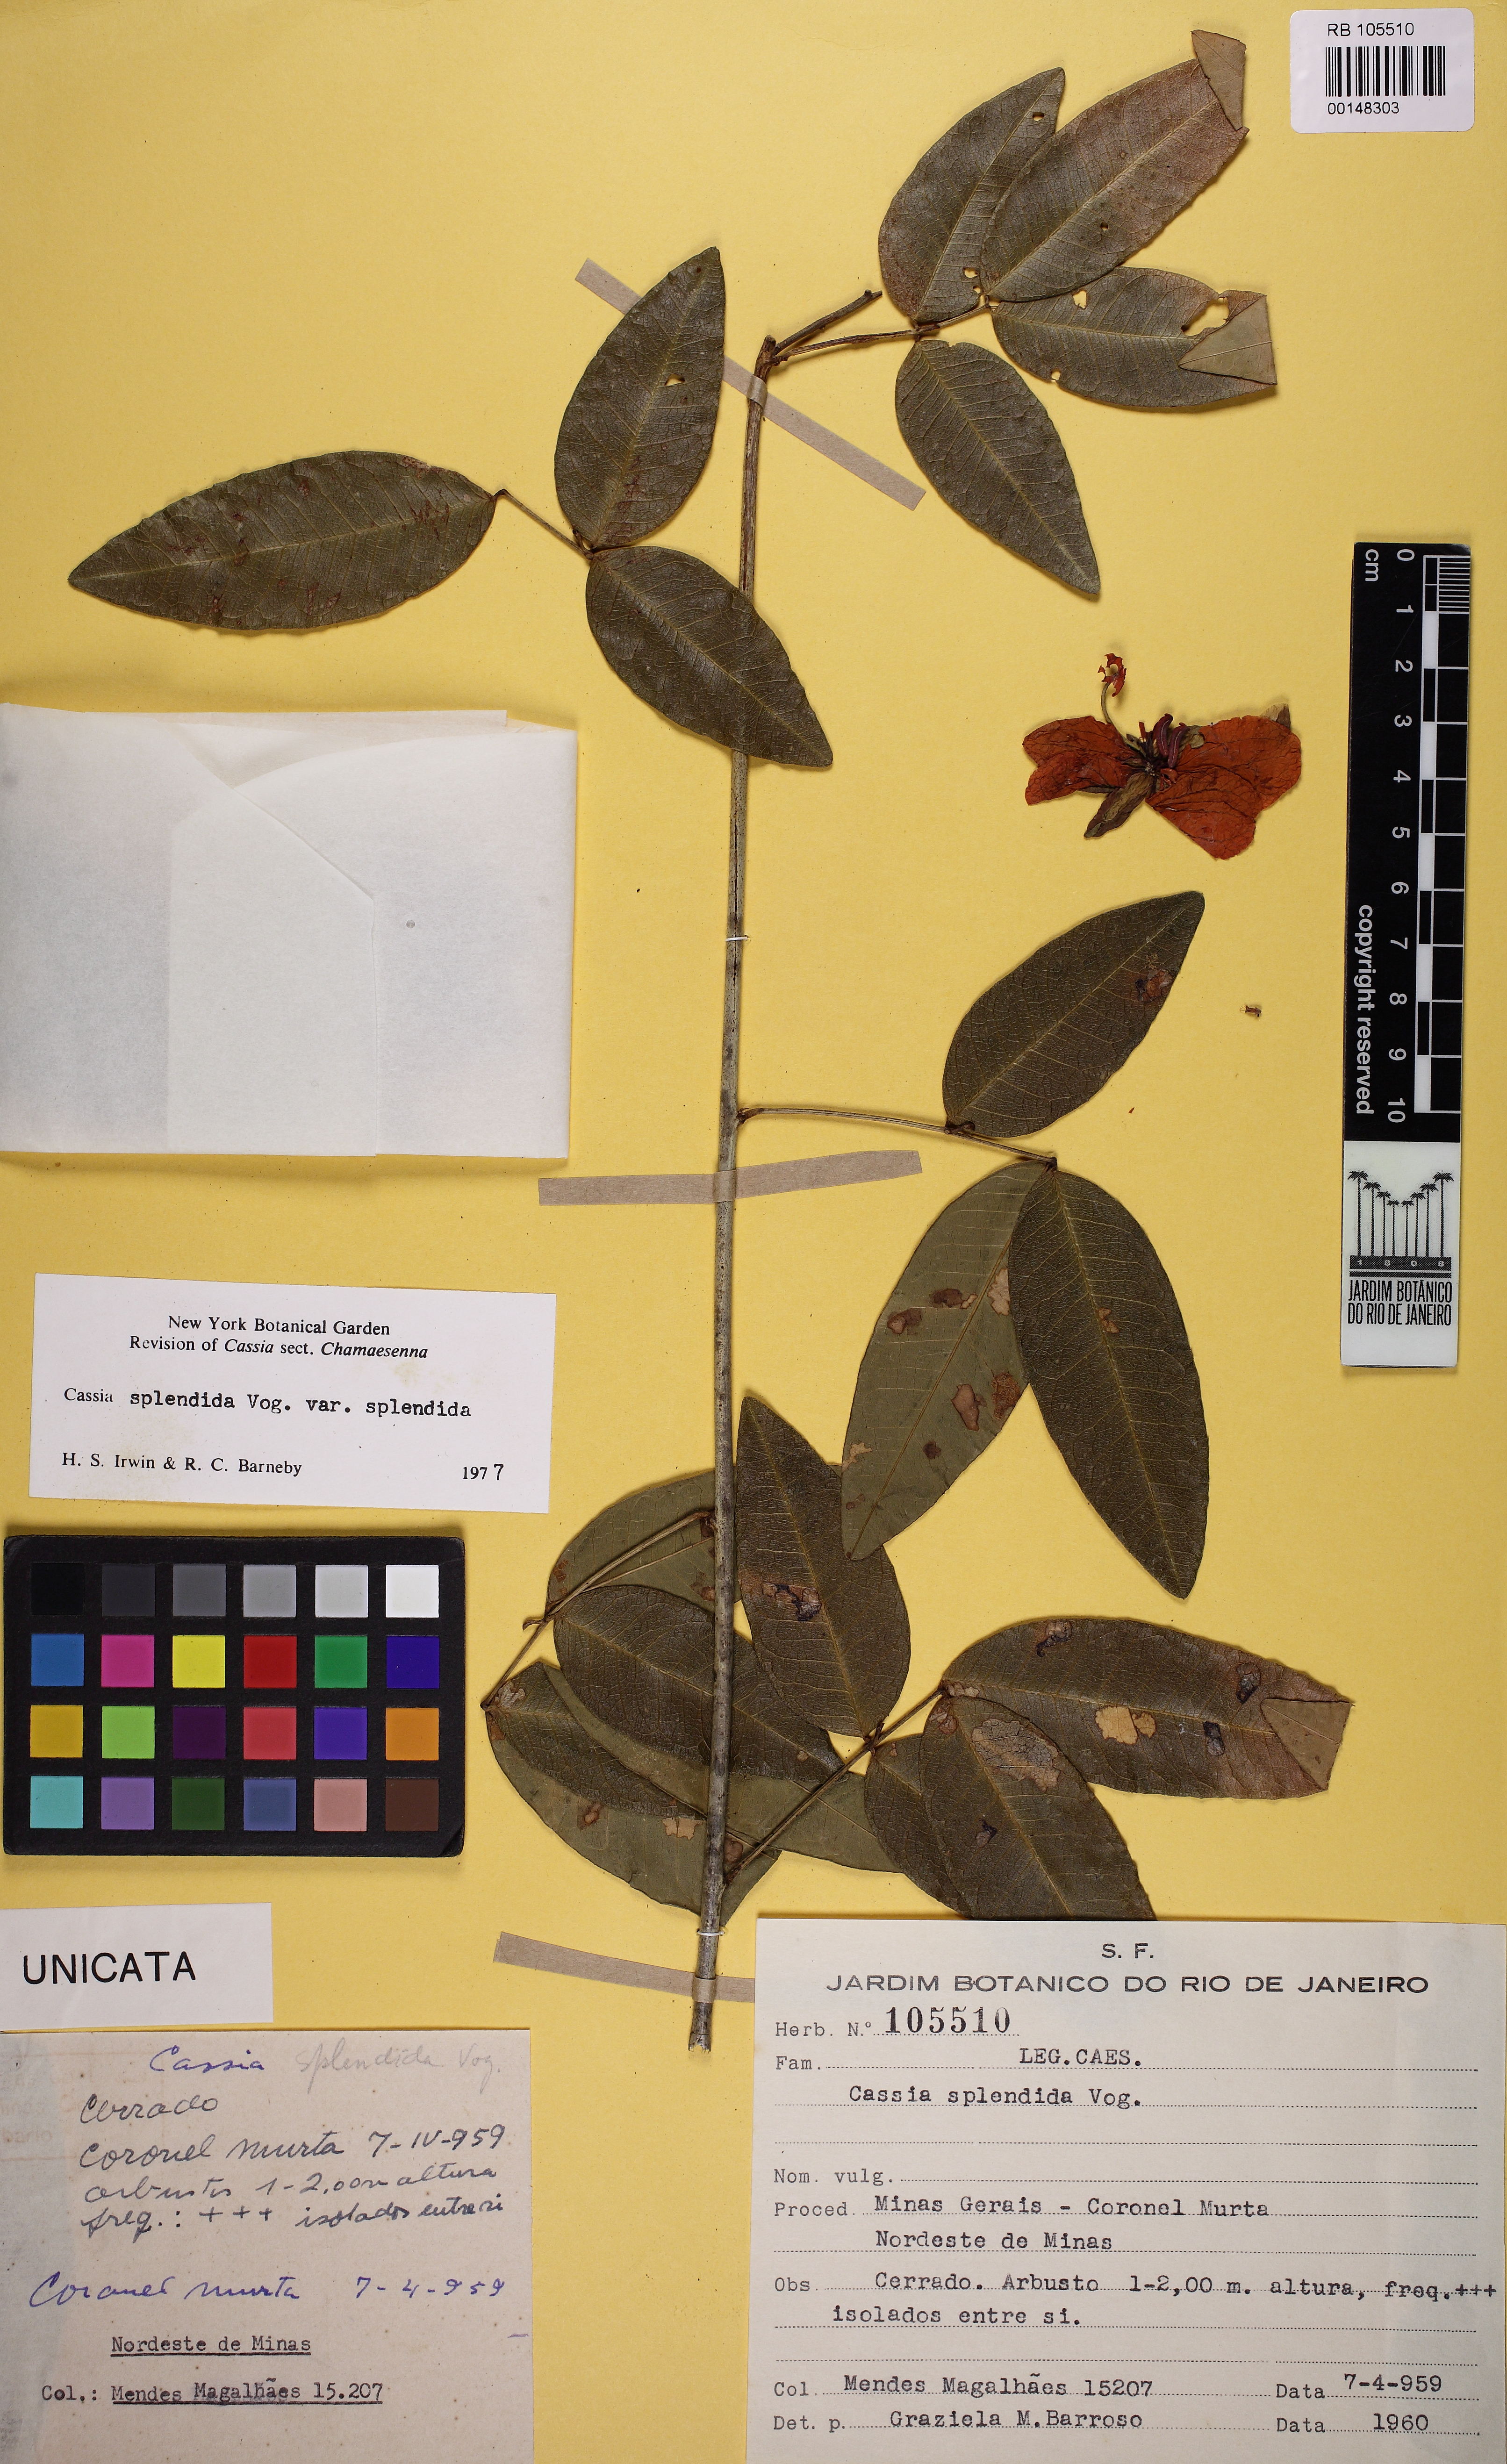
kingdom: Plantae
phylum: Tracheophyta
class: Magnoliopsida
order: Fabales
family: Fabaceae
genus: Senna
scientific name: Senna splendida
